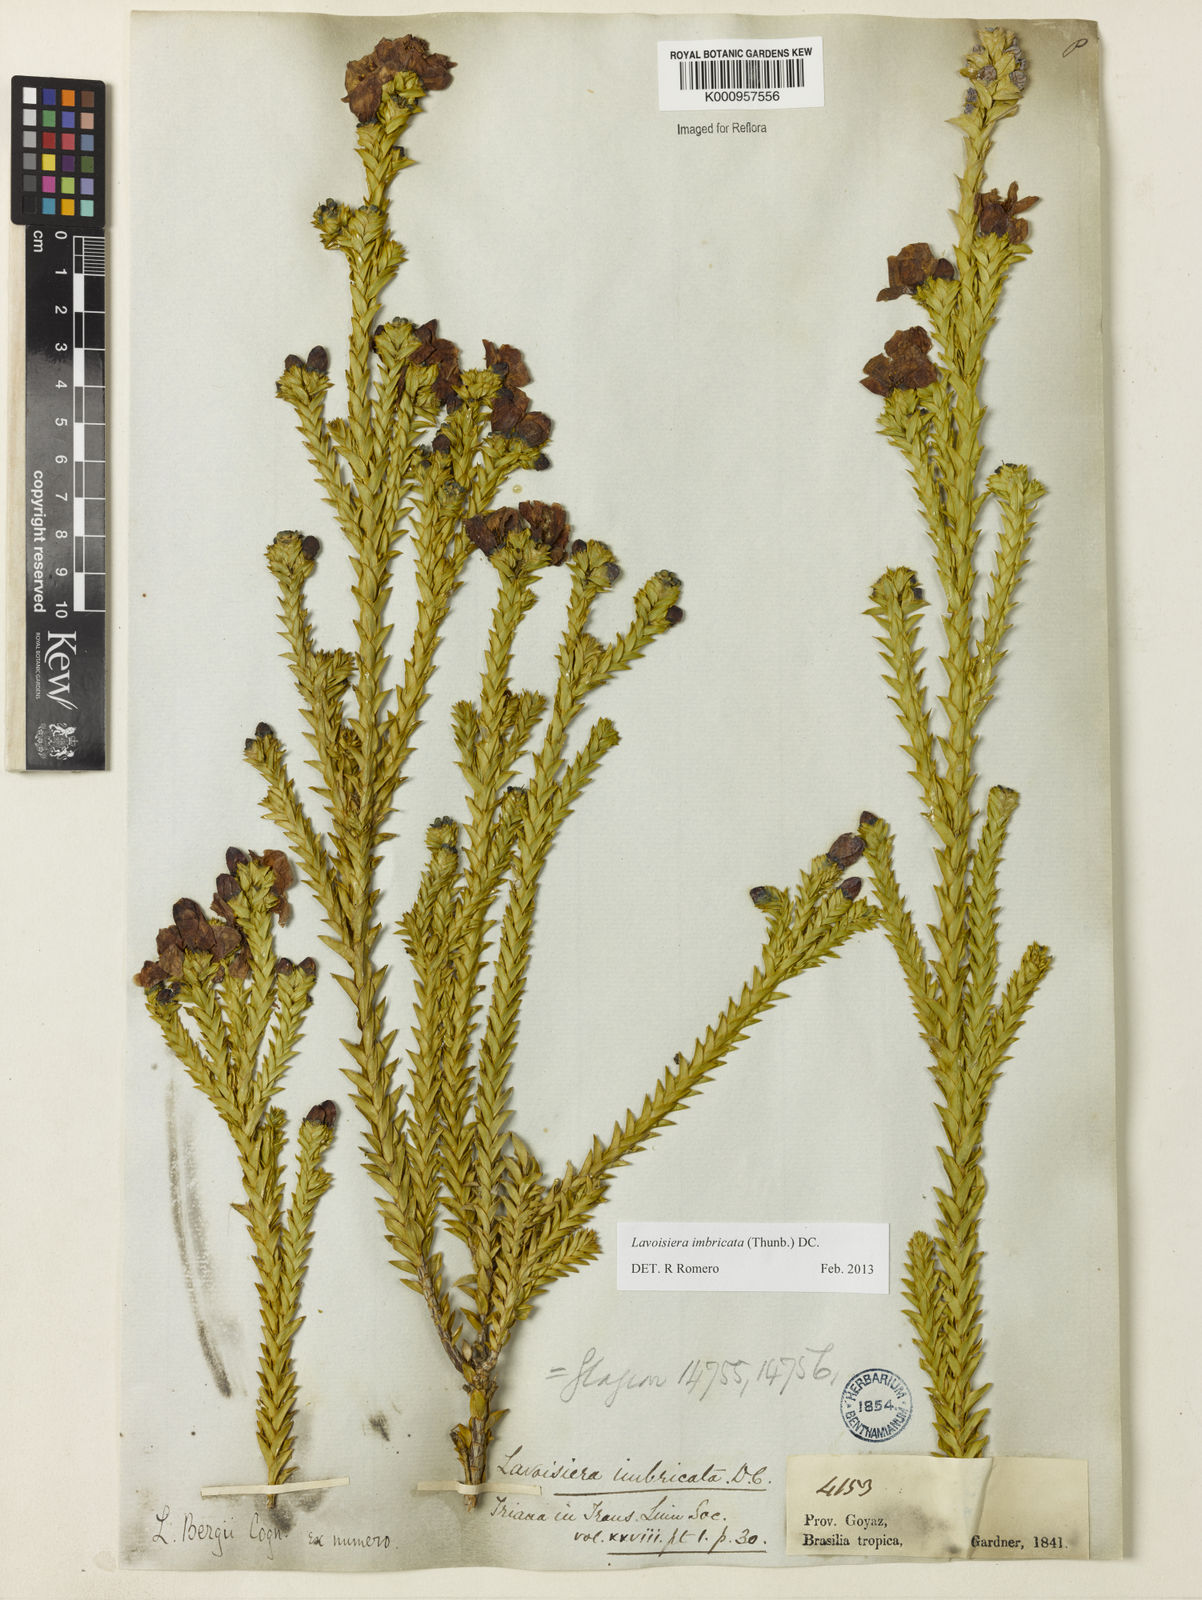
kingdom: Plantae
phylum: Tracheophyta
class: Magnoliopsida
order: Myrtales
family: Melastomataceae
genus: Microlicia
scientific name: Microlicia cataphracta
